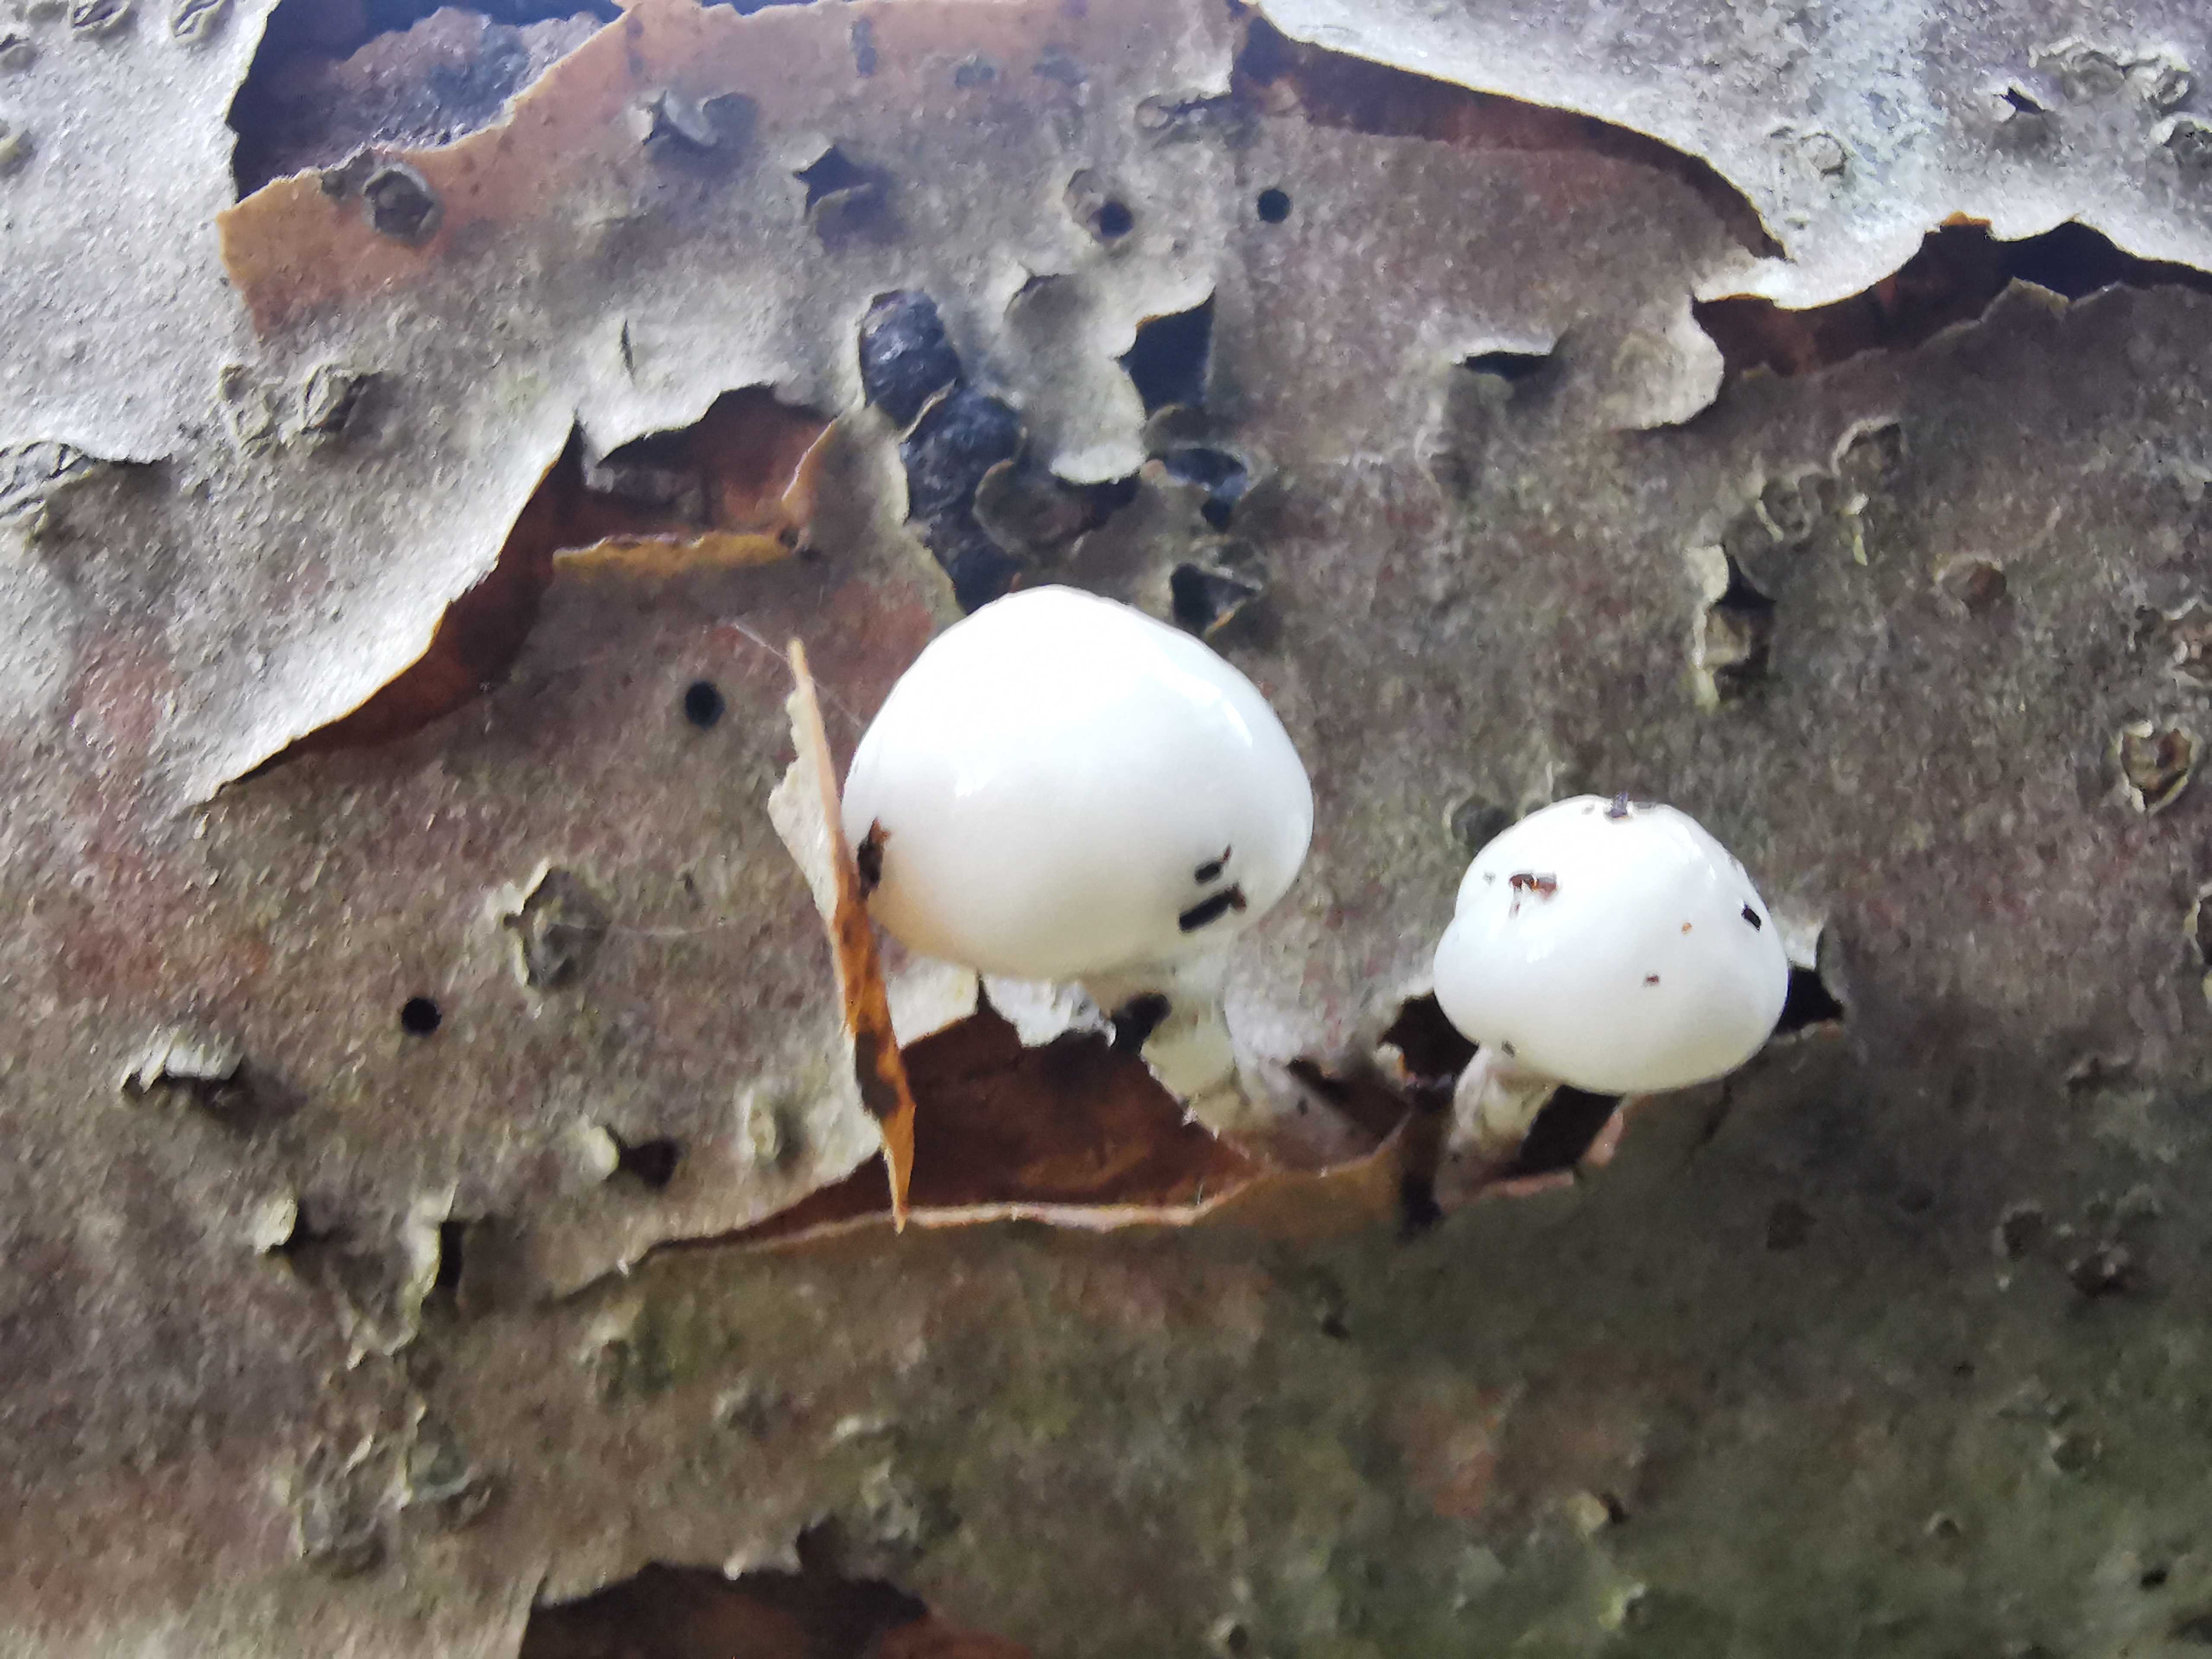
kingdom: Fungi
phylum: Basidiomycota
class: Agaricomycetes
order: Agaricales
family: Physalacriaceae
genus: Mucidula
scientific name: Mucidula mucida
